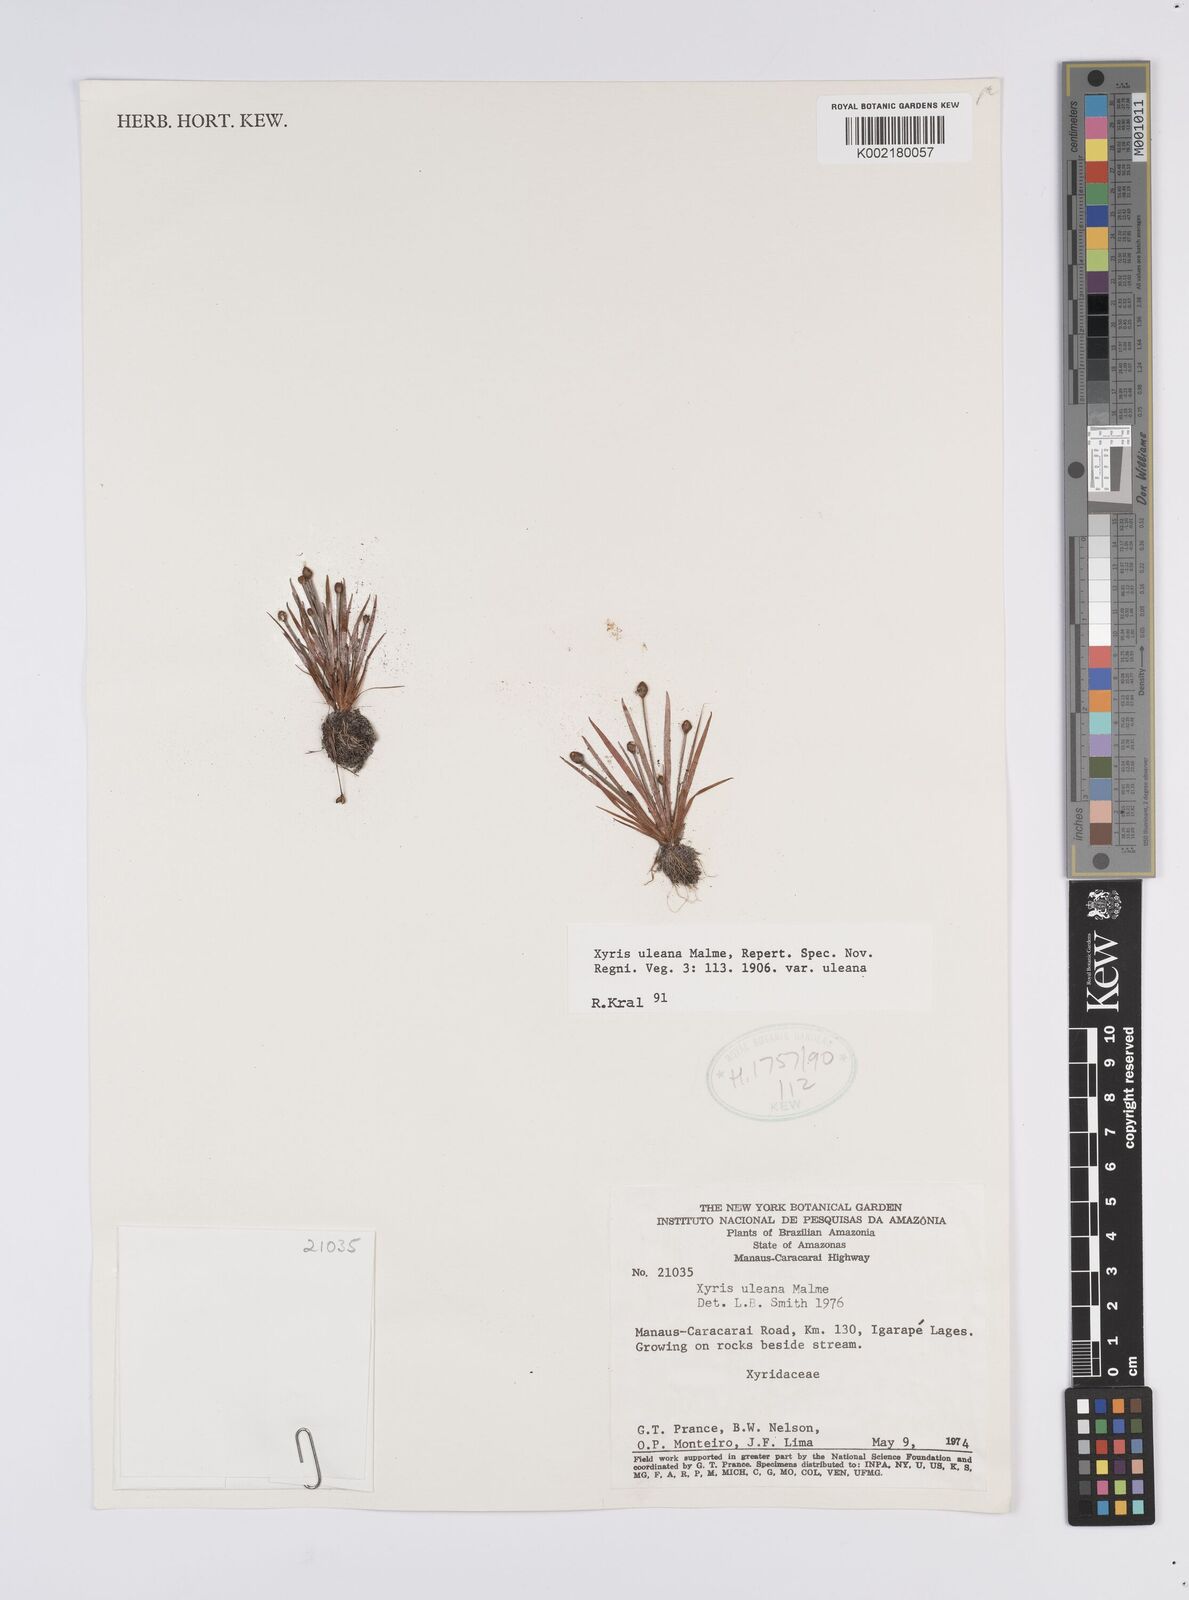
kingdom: Plantae
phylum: Tracheophyta
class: Liliopsida
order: Poales
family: Xyridaceae
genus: Xyris
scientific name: Xyris uleana
